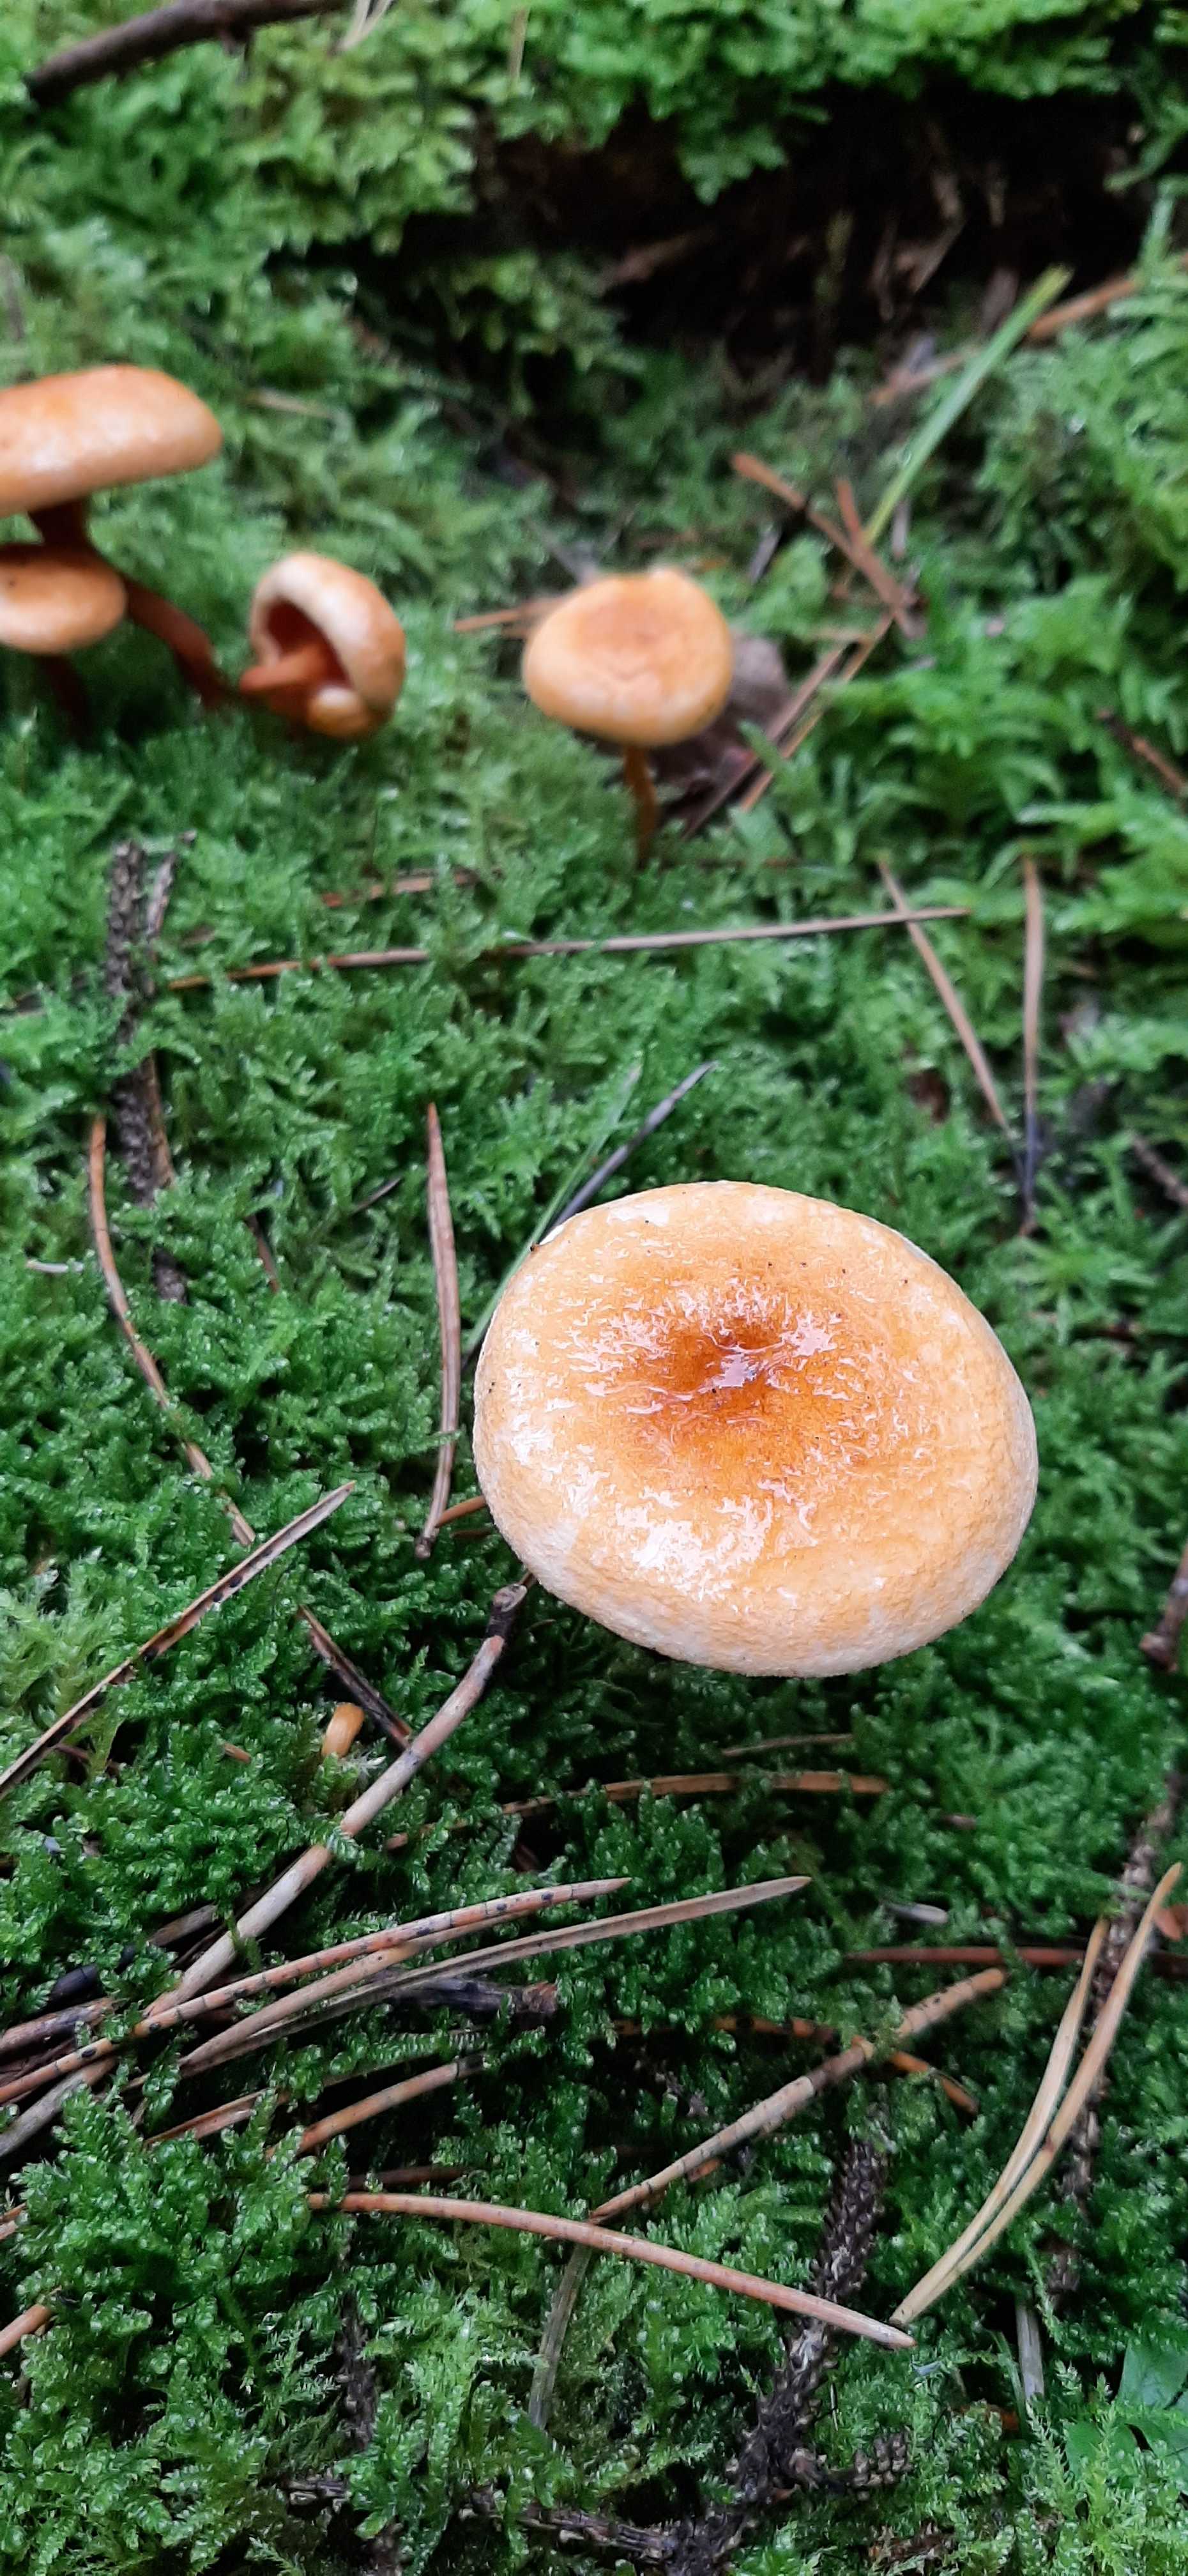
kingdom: Fungi
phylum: Basidiomycota
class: Agaricomycetes
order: Boletales
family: Hygrophoropsidaceae
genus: Hygrophoropsis
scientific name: Hygrophoropsis aurantiaca
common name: almindelig orangekantarel
